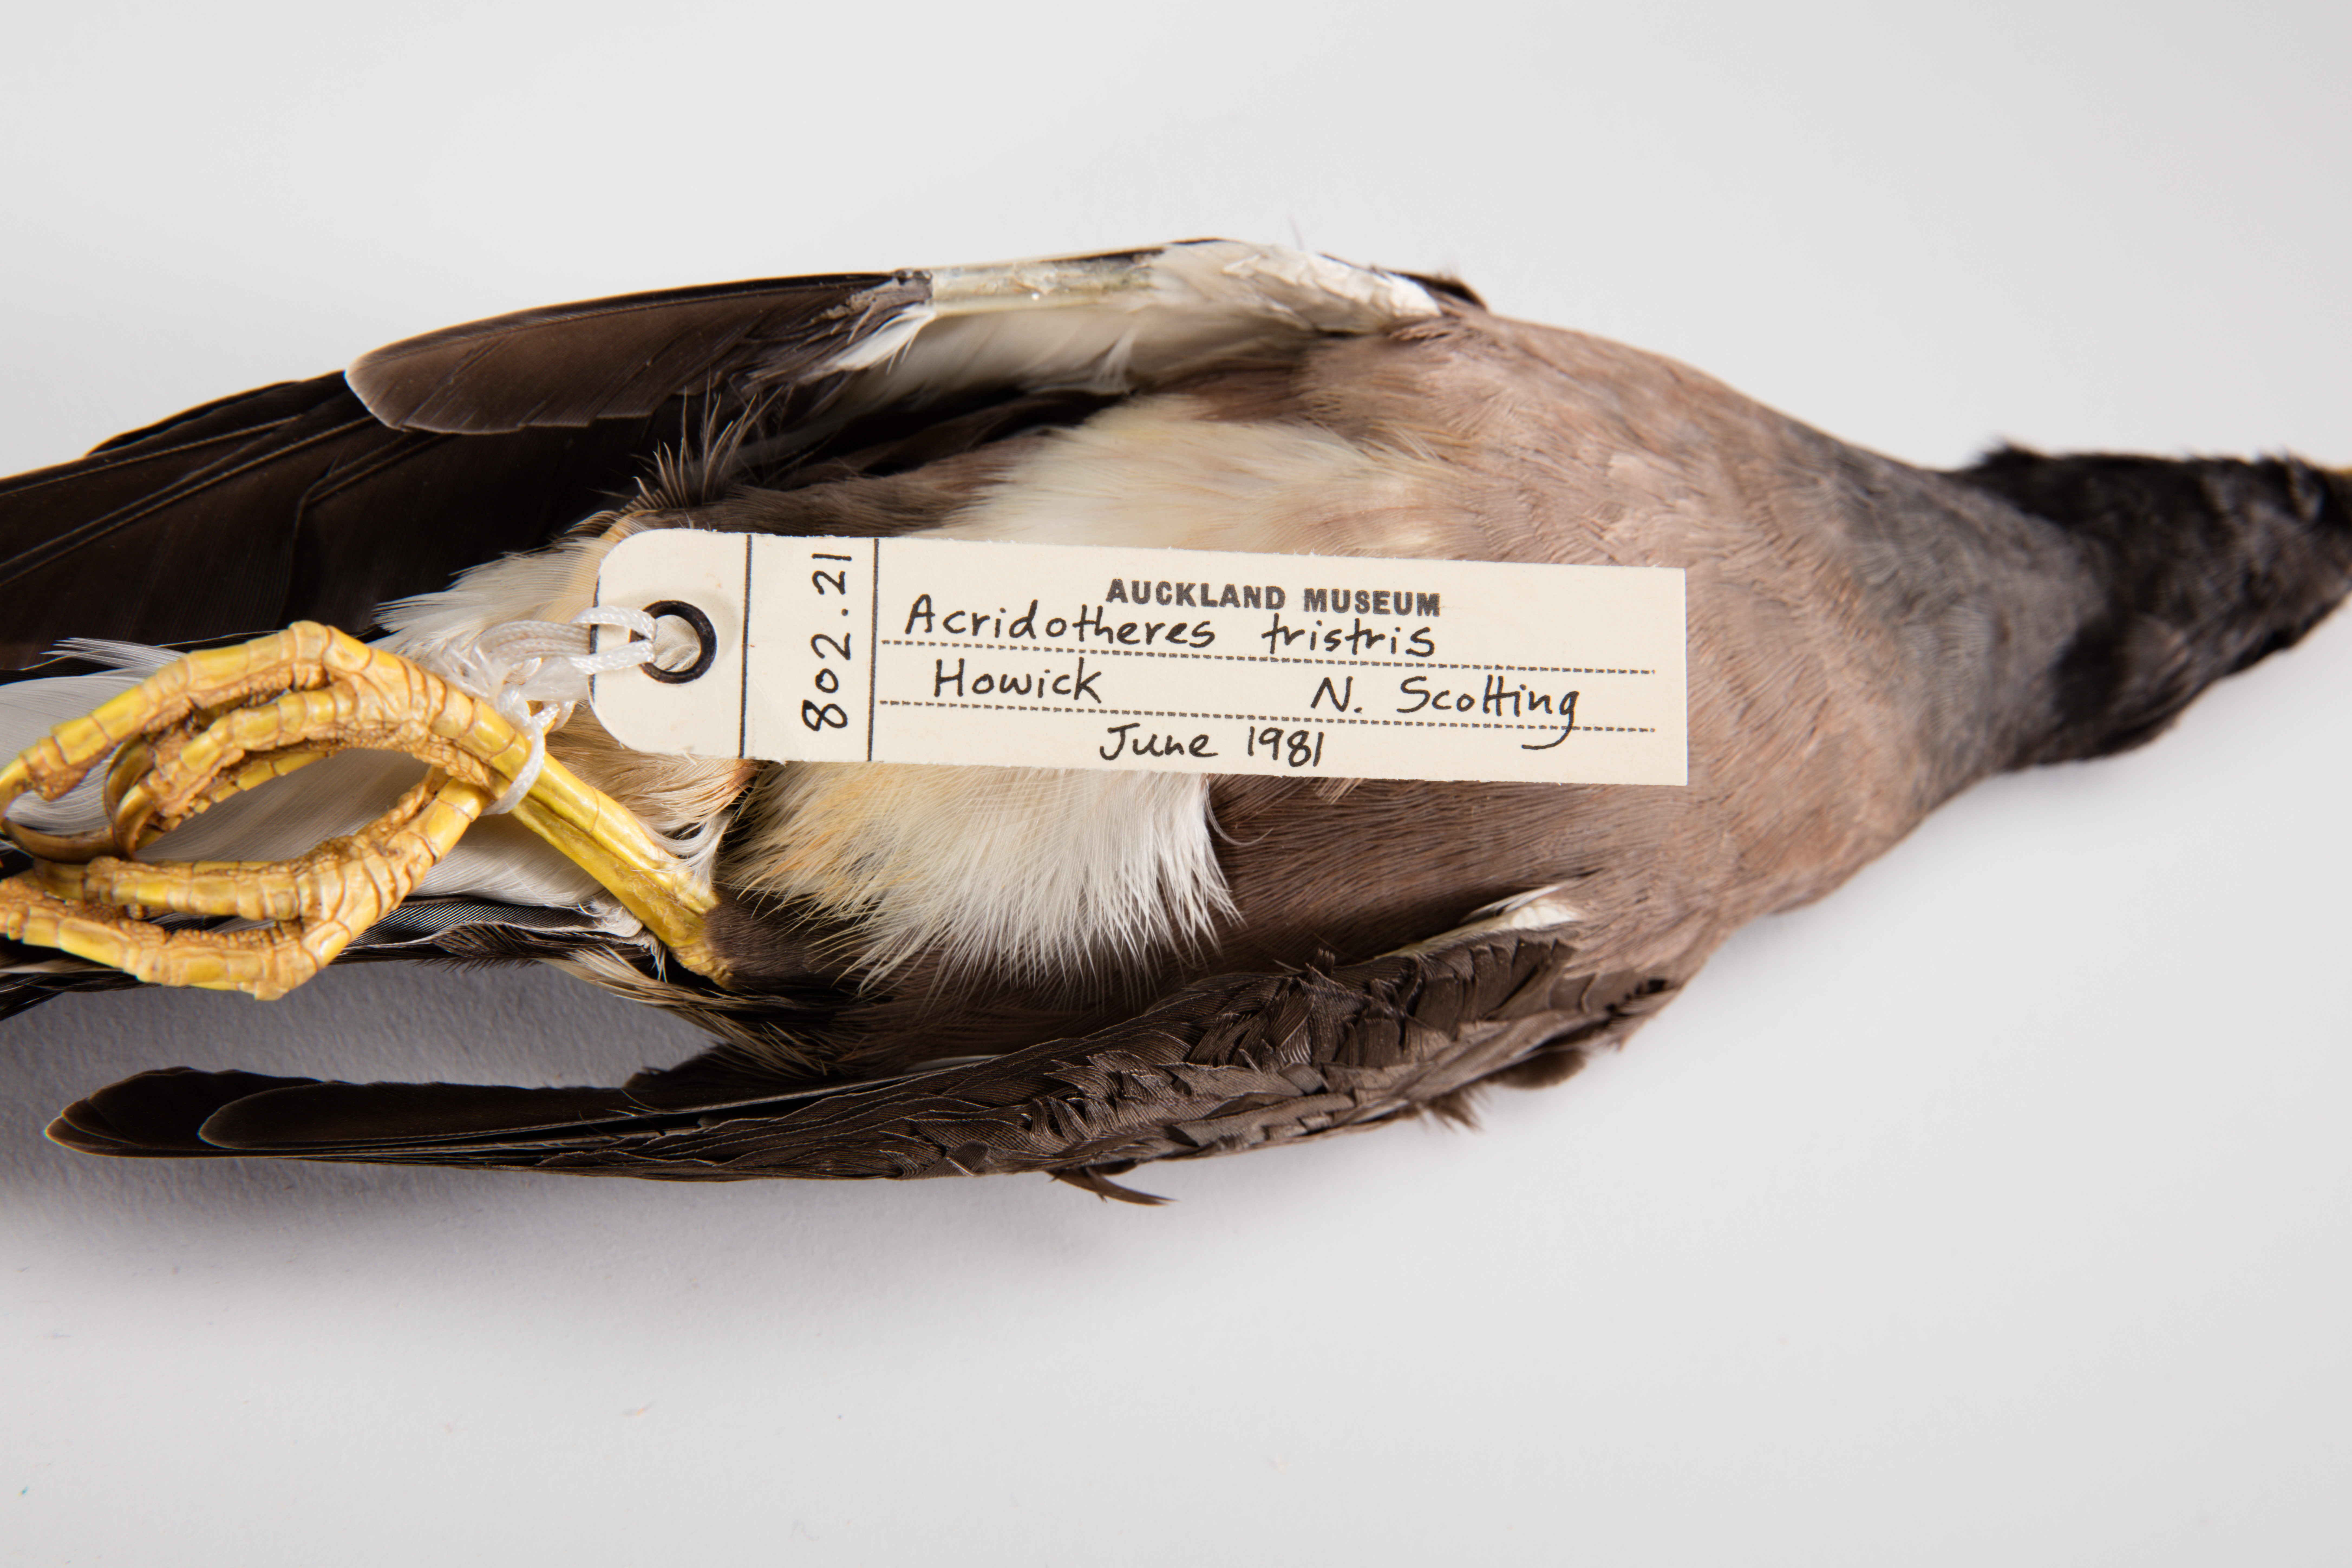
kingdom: Animalia
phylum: Chordata
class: Aves
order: Passeriformes
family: Sturnidae
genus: Acridotheres
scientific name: Acridotheres tristis
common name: Common myna
